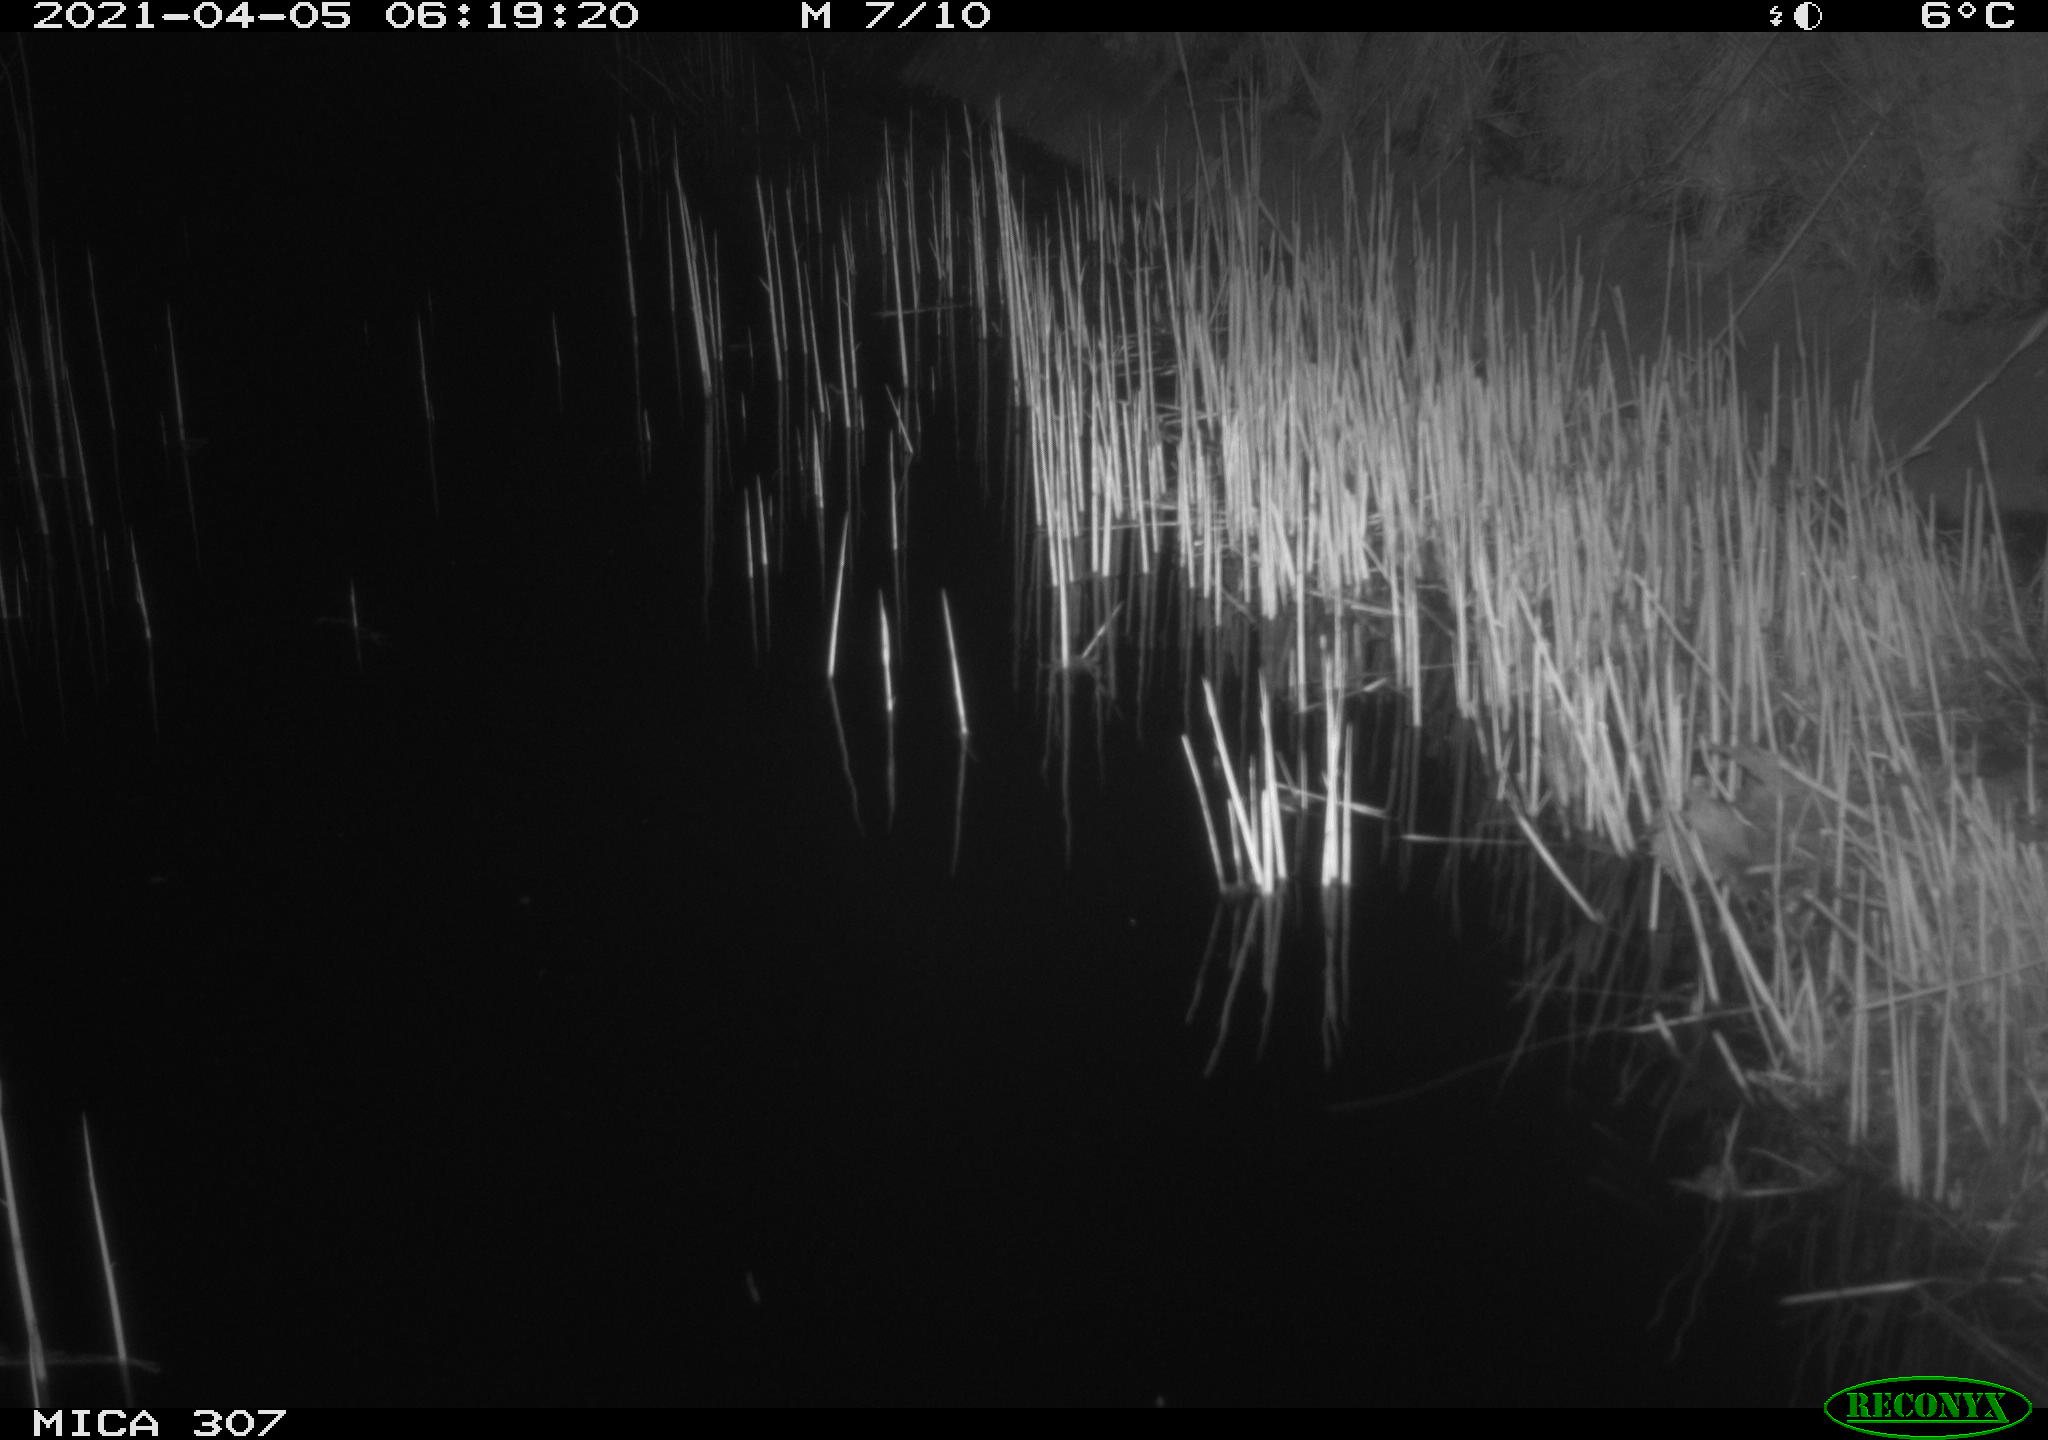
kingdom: Animalia
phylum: Chordata
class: Mammalia
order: Rodentia
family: Muridae
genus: Rattus
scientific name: Rattus norvegicus
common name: Brown rat
